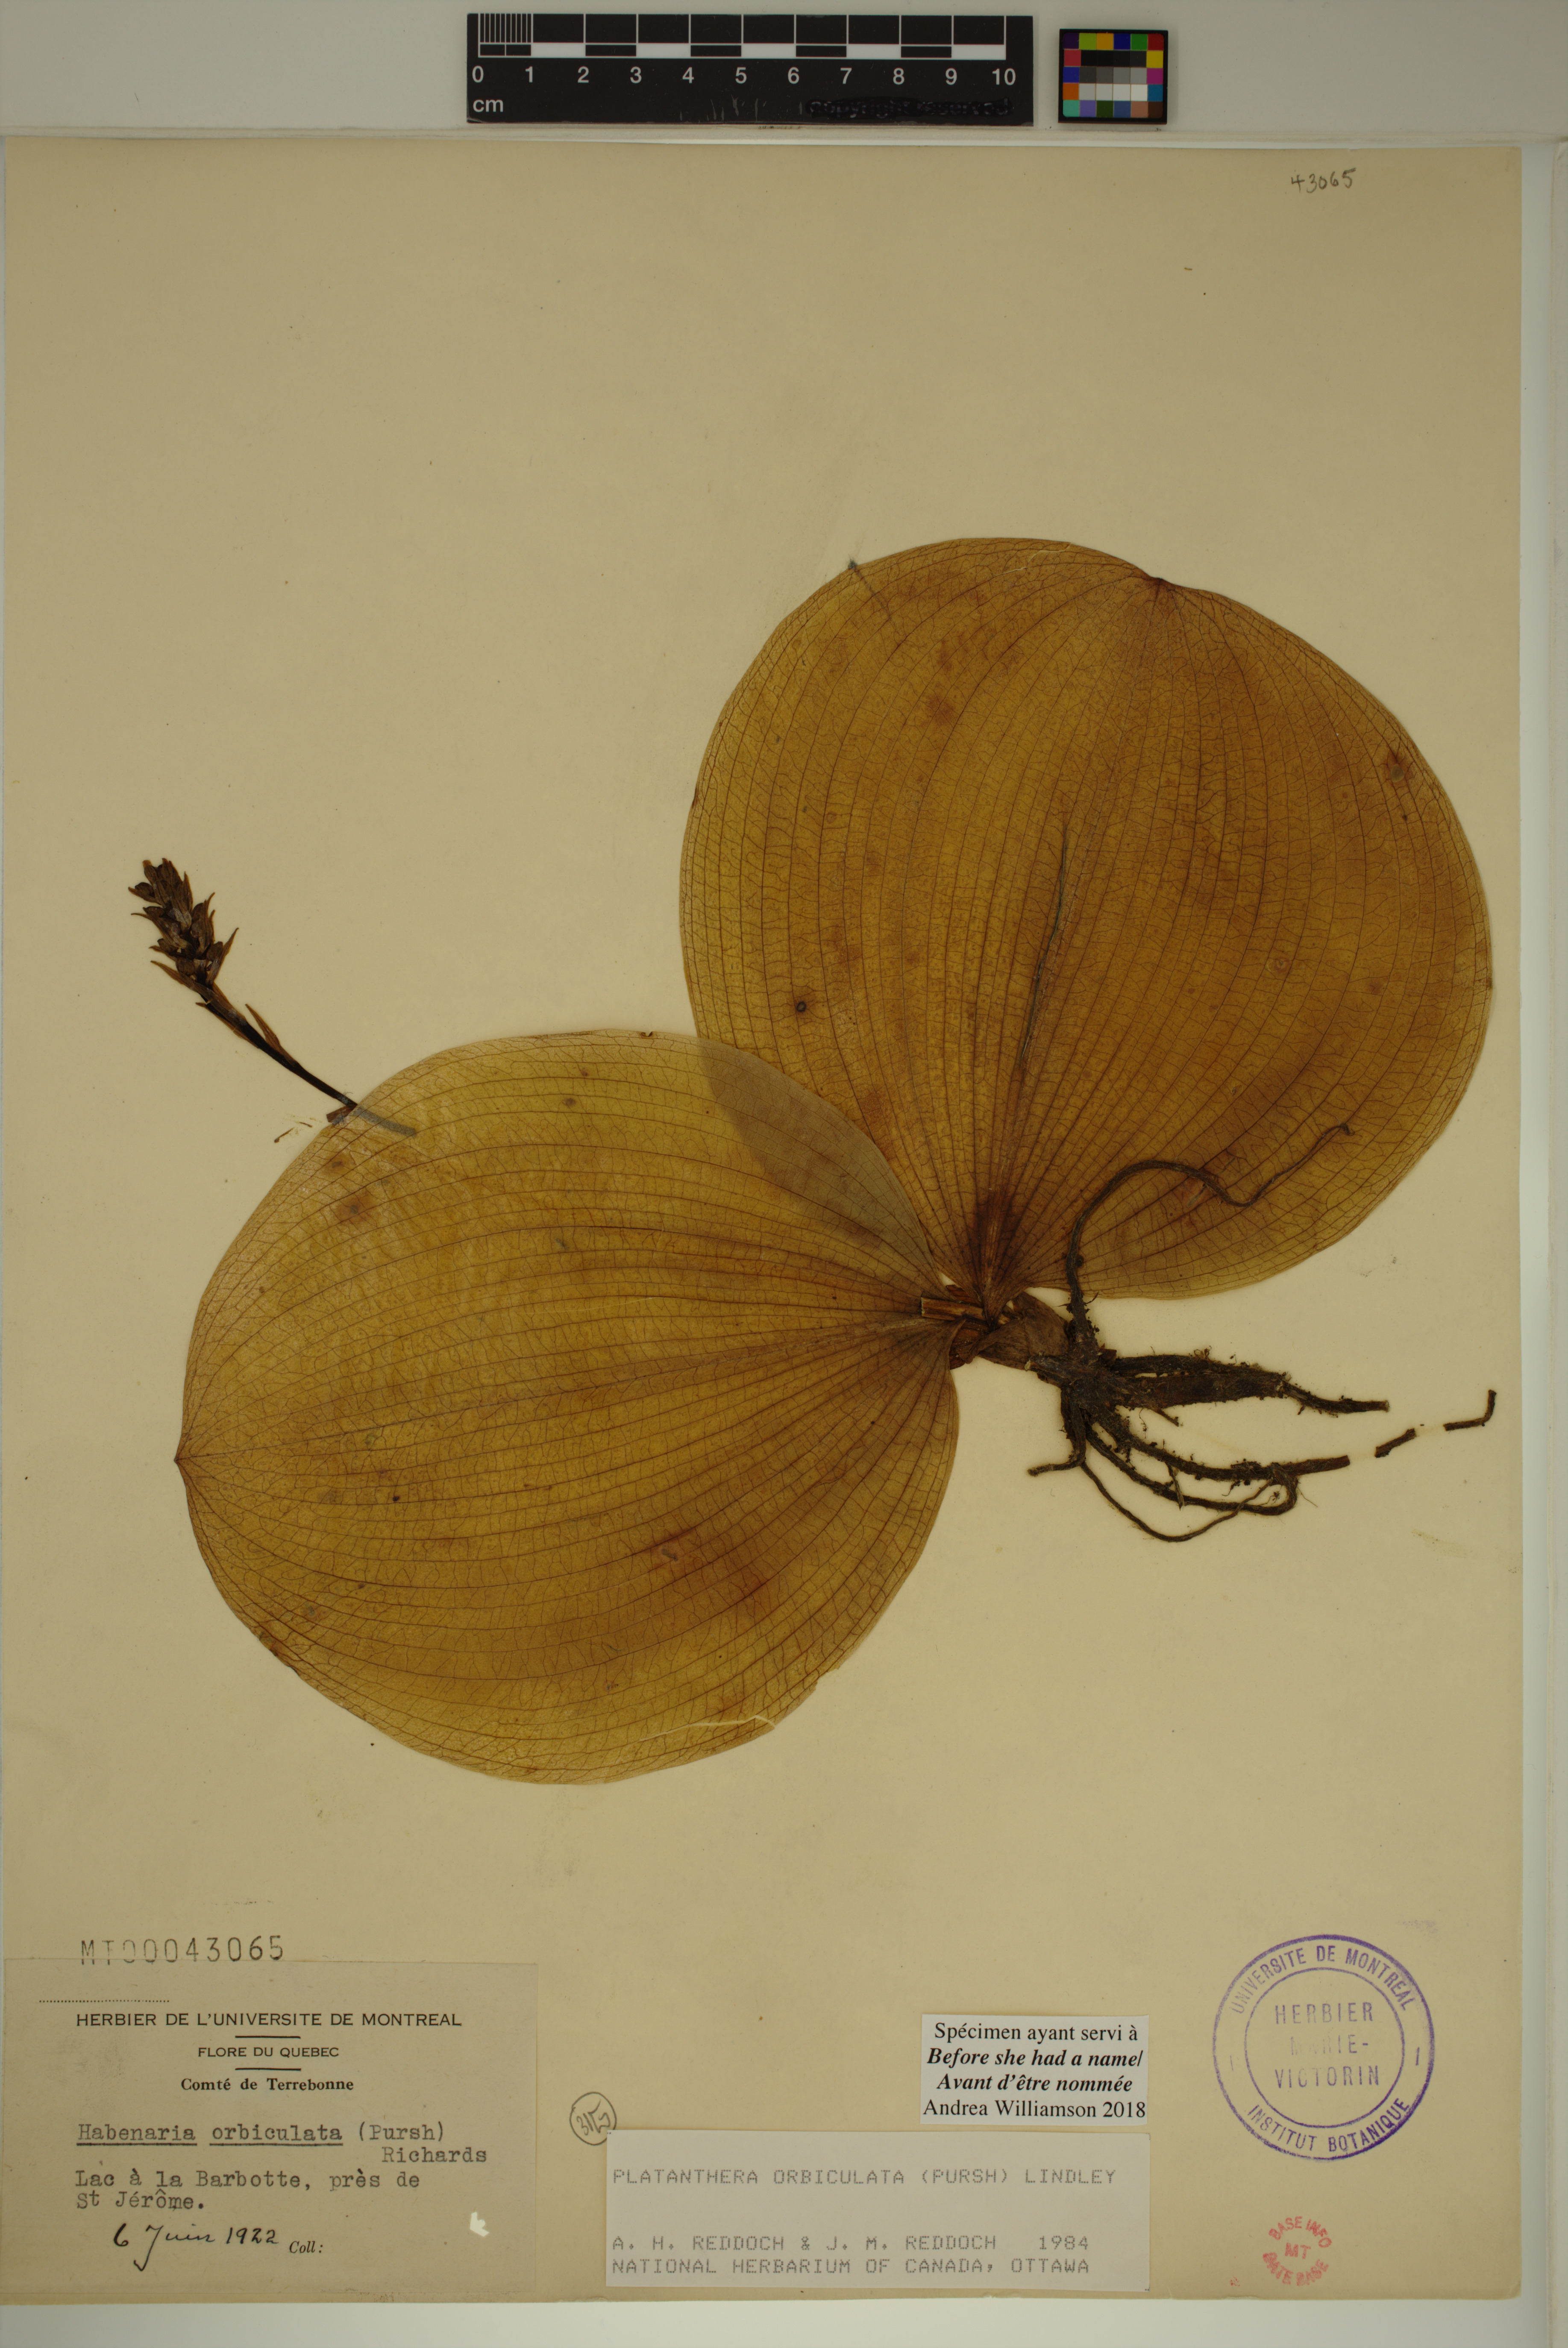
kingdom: Plantae
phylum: Tracheophyta
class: Liliopsida
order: Asparagales
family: Orchidaceae
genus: Platanthera
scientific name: Platanthera orbiculata
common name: Large round-leaved orchid
